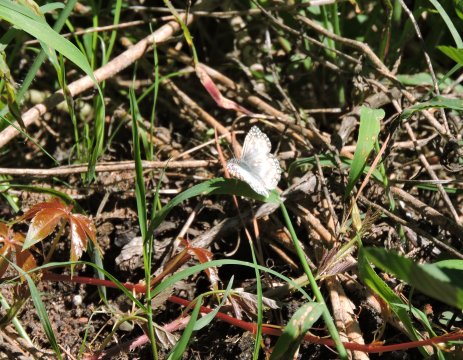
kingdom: Animalia
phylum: Arthropoda
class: Insecta
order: Lepidoptera
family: Hesperiidae
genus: Pyrgus
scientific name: Pyrgus oileus
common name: Tropical Checkered-Skipper
